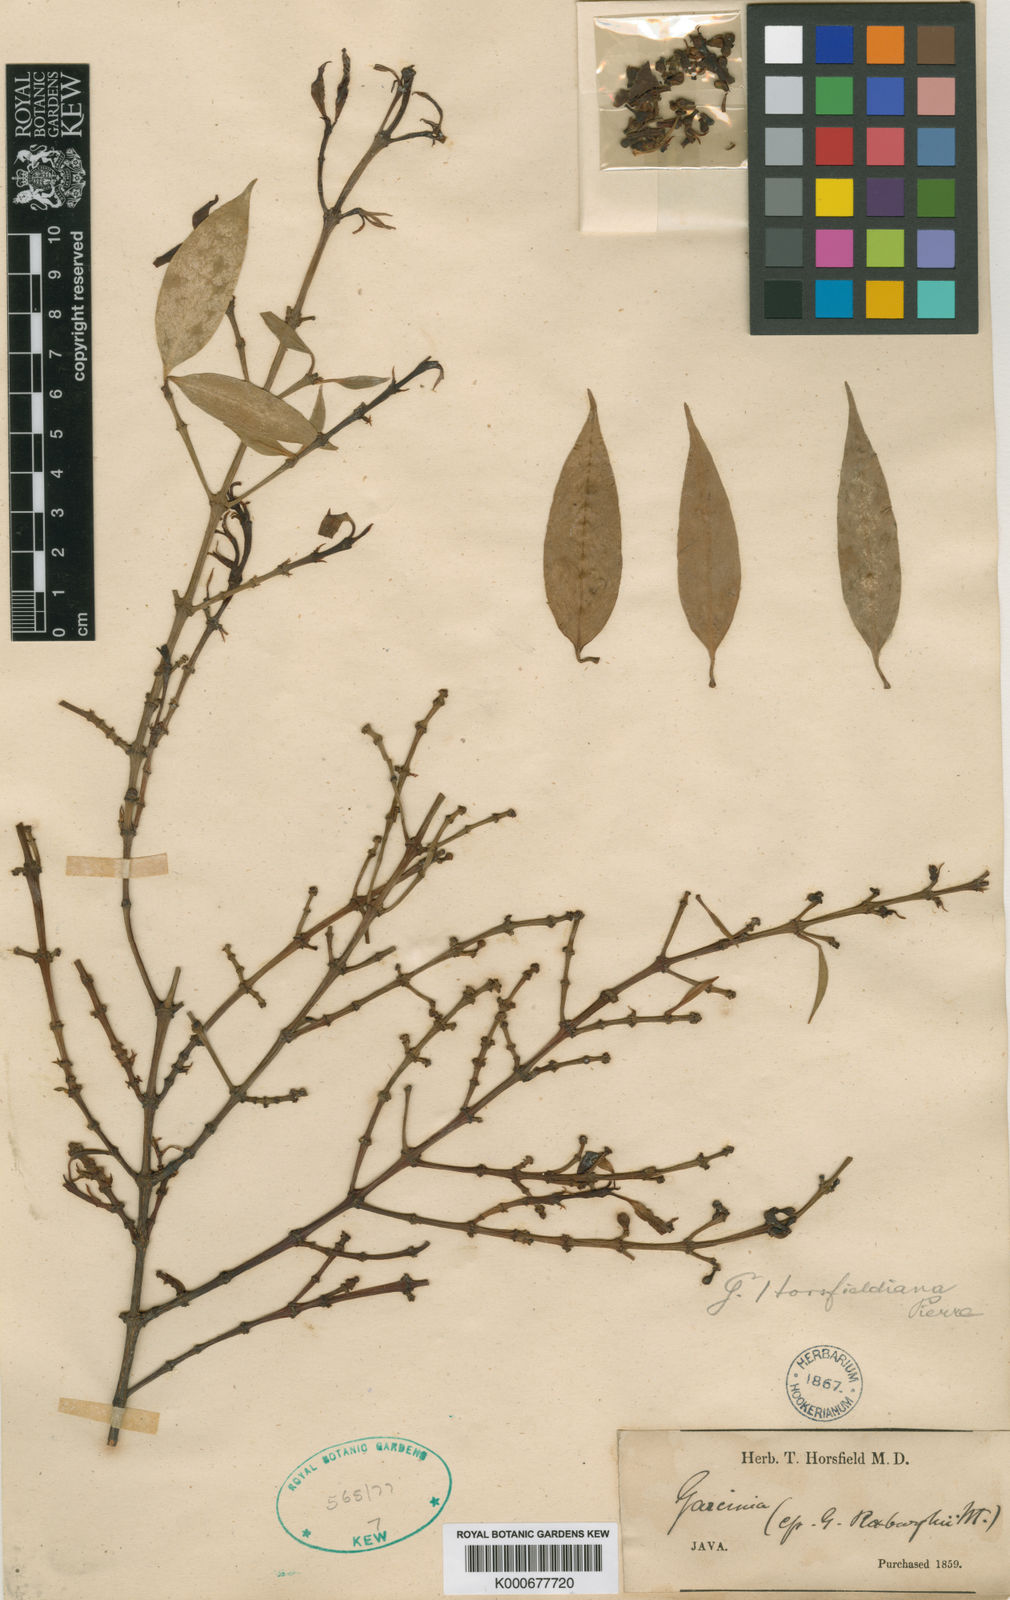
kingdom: Plantae
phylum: Tracheophyta
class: Magnoliopsida
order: Malpighiales
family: Clusiaceae
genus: Garcinia
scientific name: Garcinia horsfieldiana
